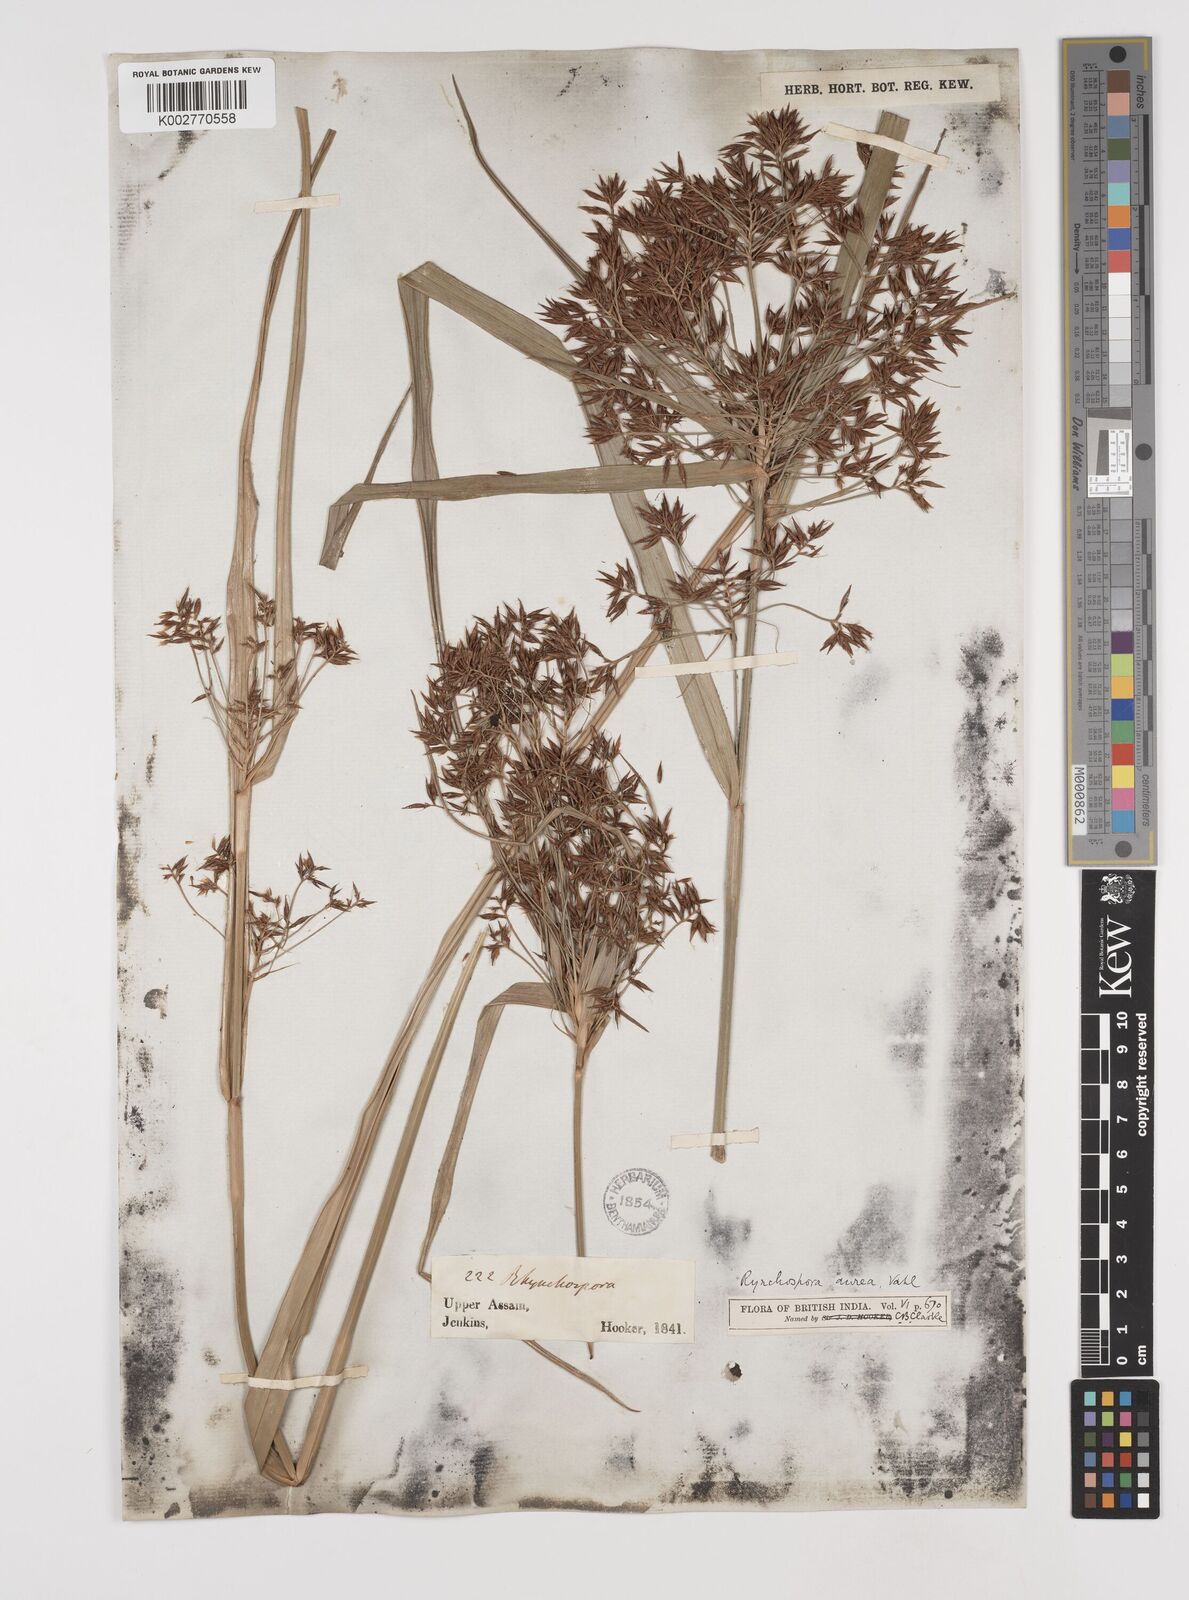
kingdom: Plantae
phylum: Tracheophyta
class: Liliopsida
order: Poales
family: Cyperaceae
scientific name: Cyperaceae
